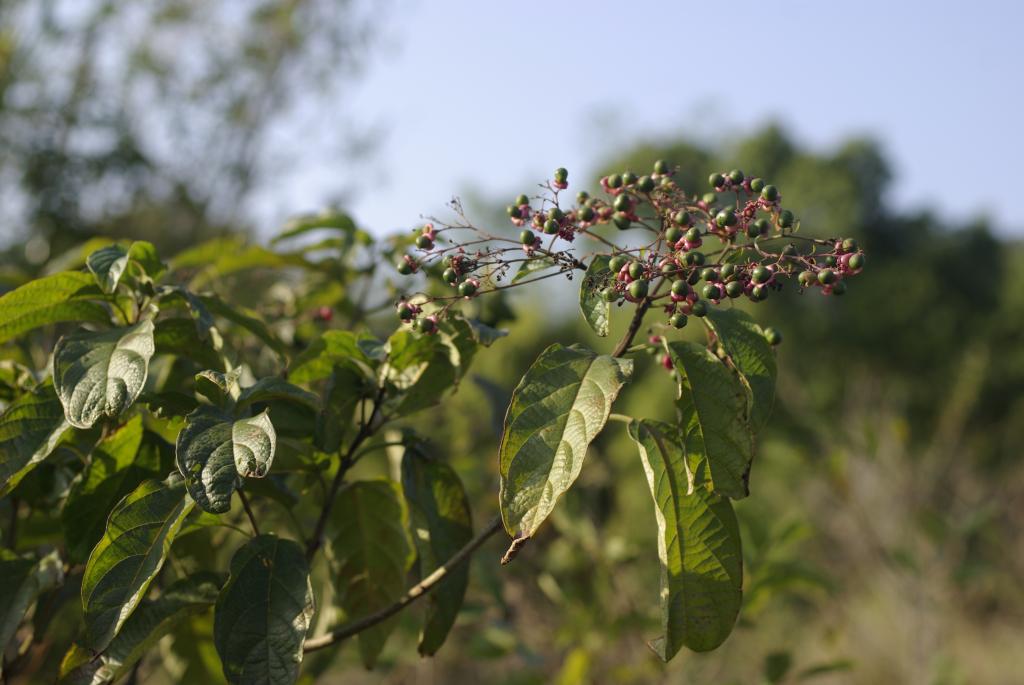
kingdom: Plantae
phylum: Tracheophyta
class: Magnoliopsida
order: Lamiales
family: Lamiaceae
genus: Clerodendrum
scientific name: Clerodendrum cyrtophyllum
